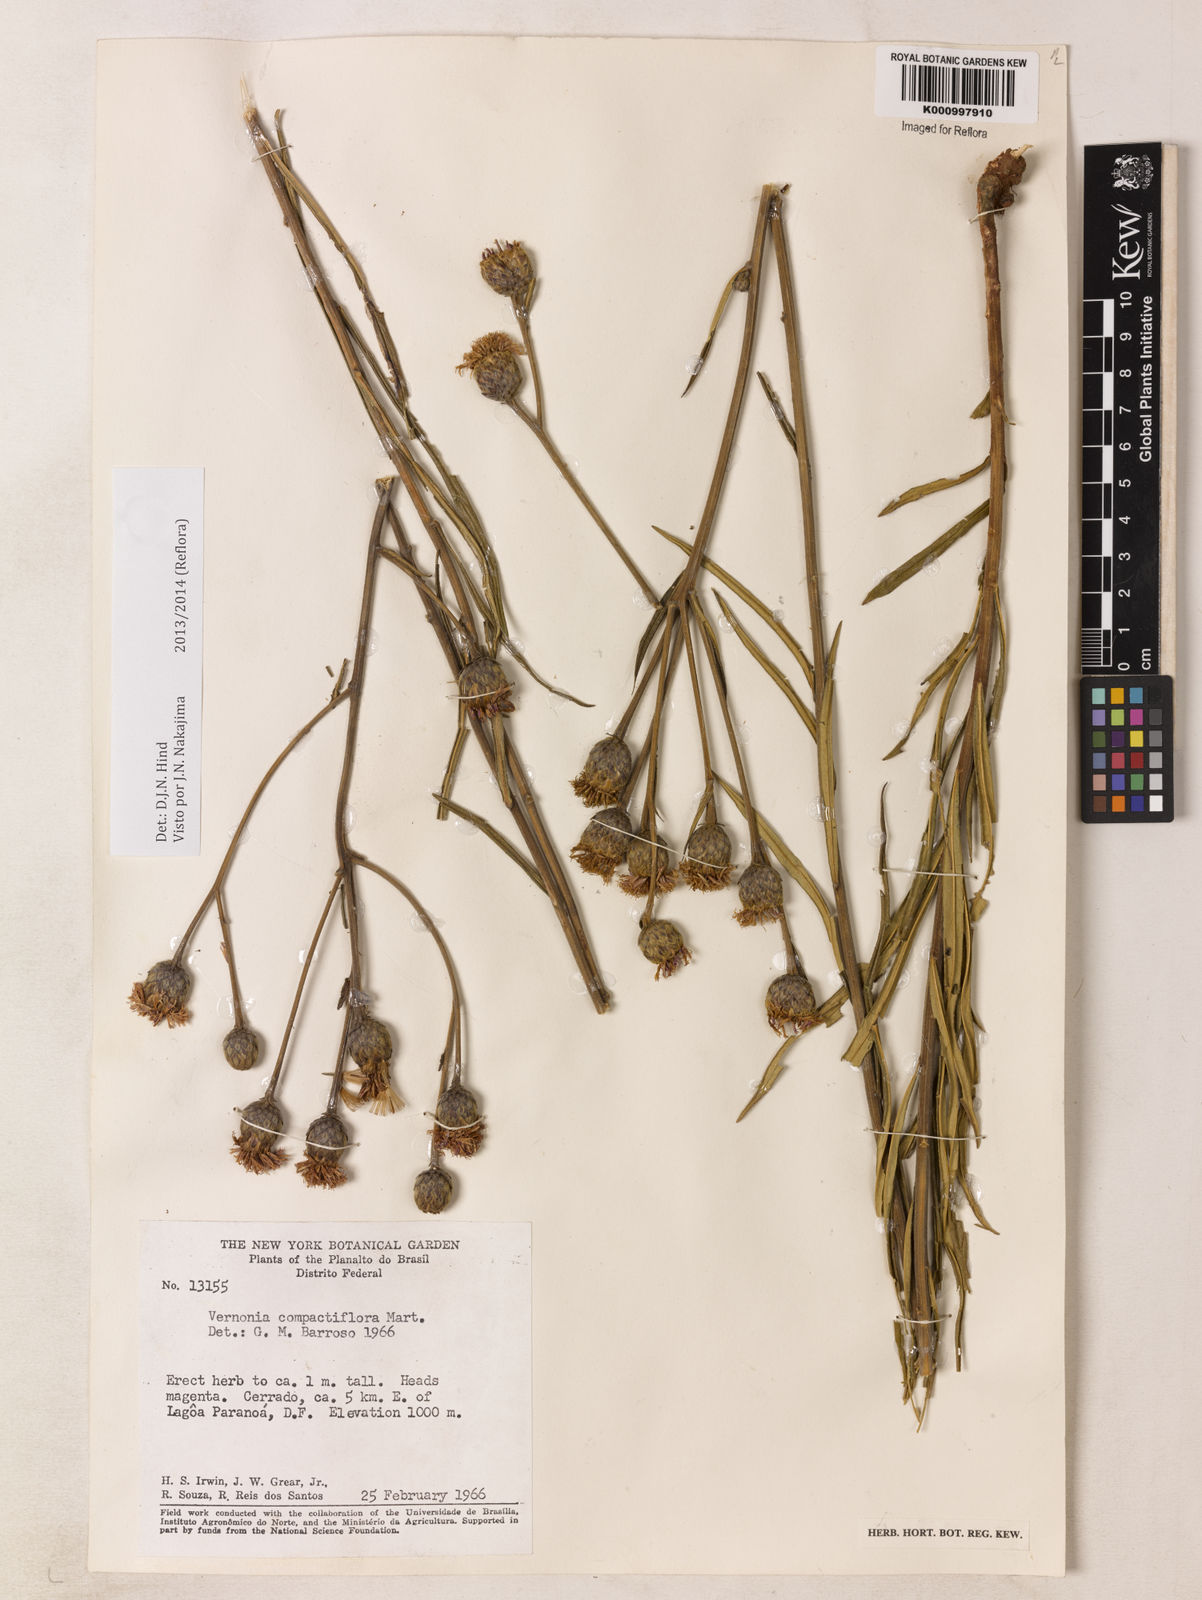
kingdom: Plantae
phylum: Tracheophyta
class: Magnoliopsida
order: Asterales
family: Asteraceae
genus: Lessingianthus
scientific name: Lessingianthus compactiflorus
